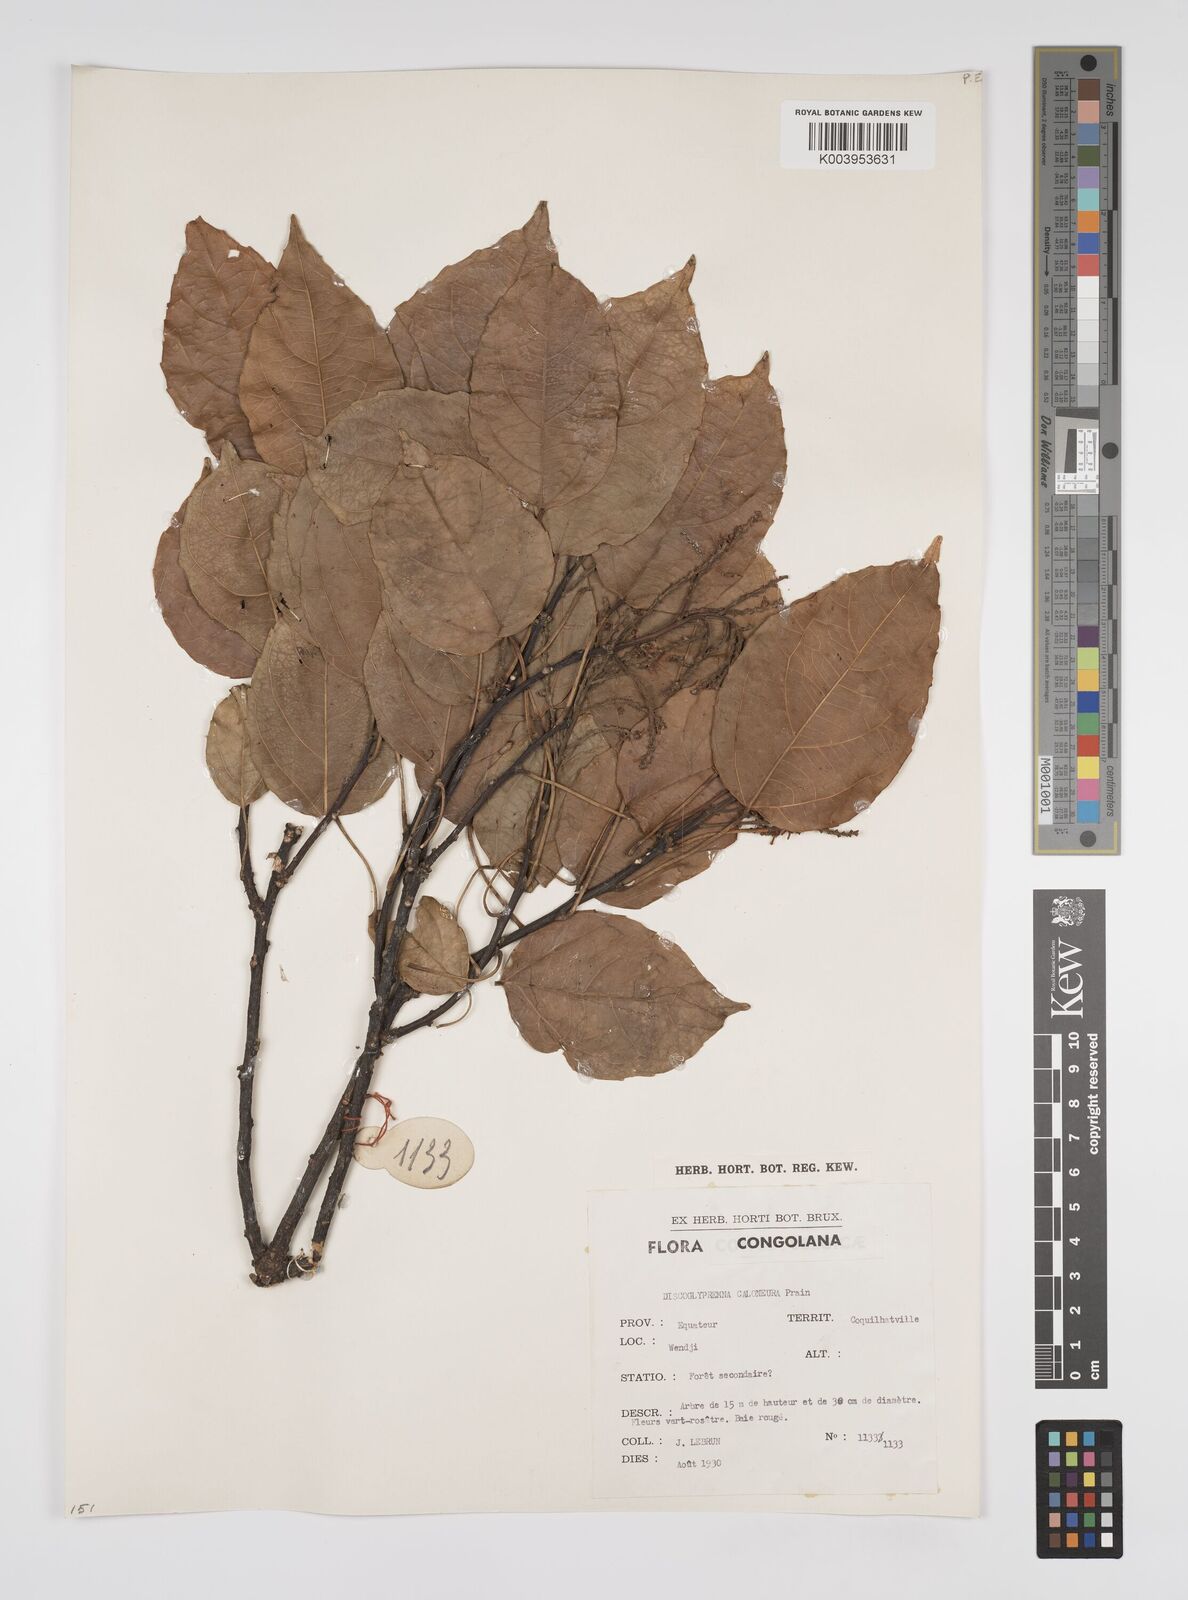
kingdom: Plantae
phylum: Tracheophyta
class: Magnoliopsida
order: Malpighiales
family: Euphorbiaceae
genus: Discoglypremna
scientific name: Discoglypremna caloneura
